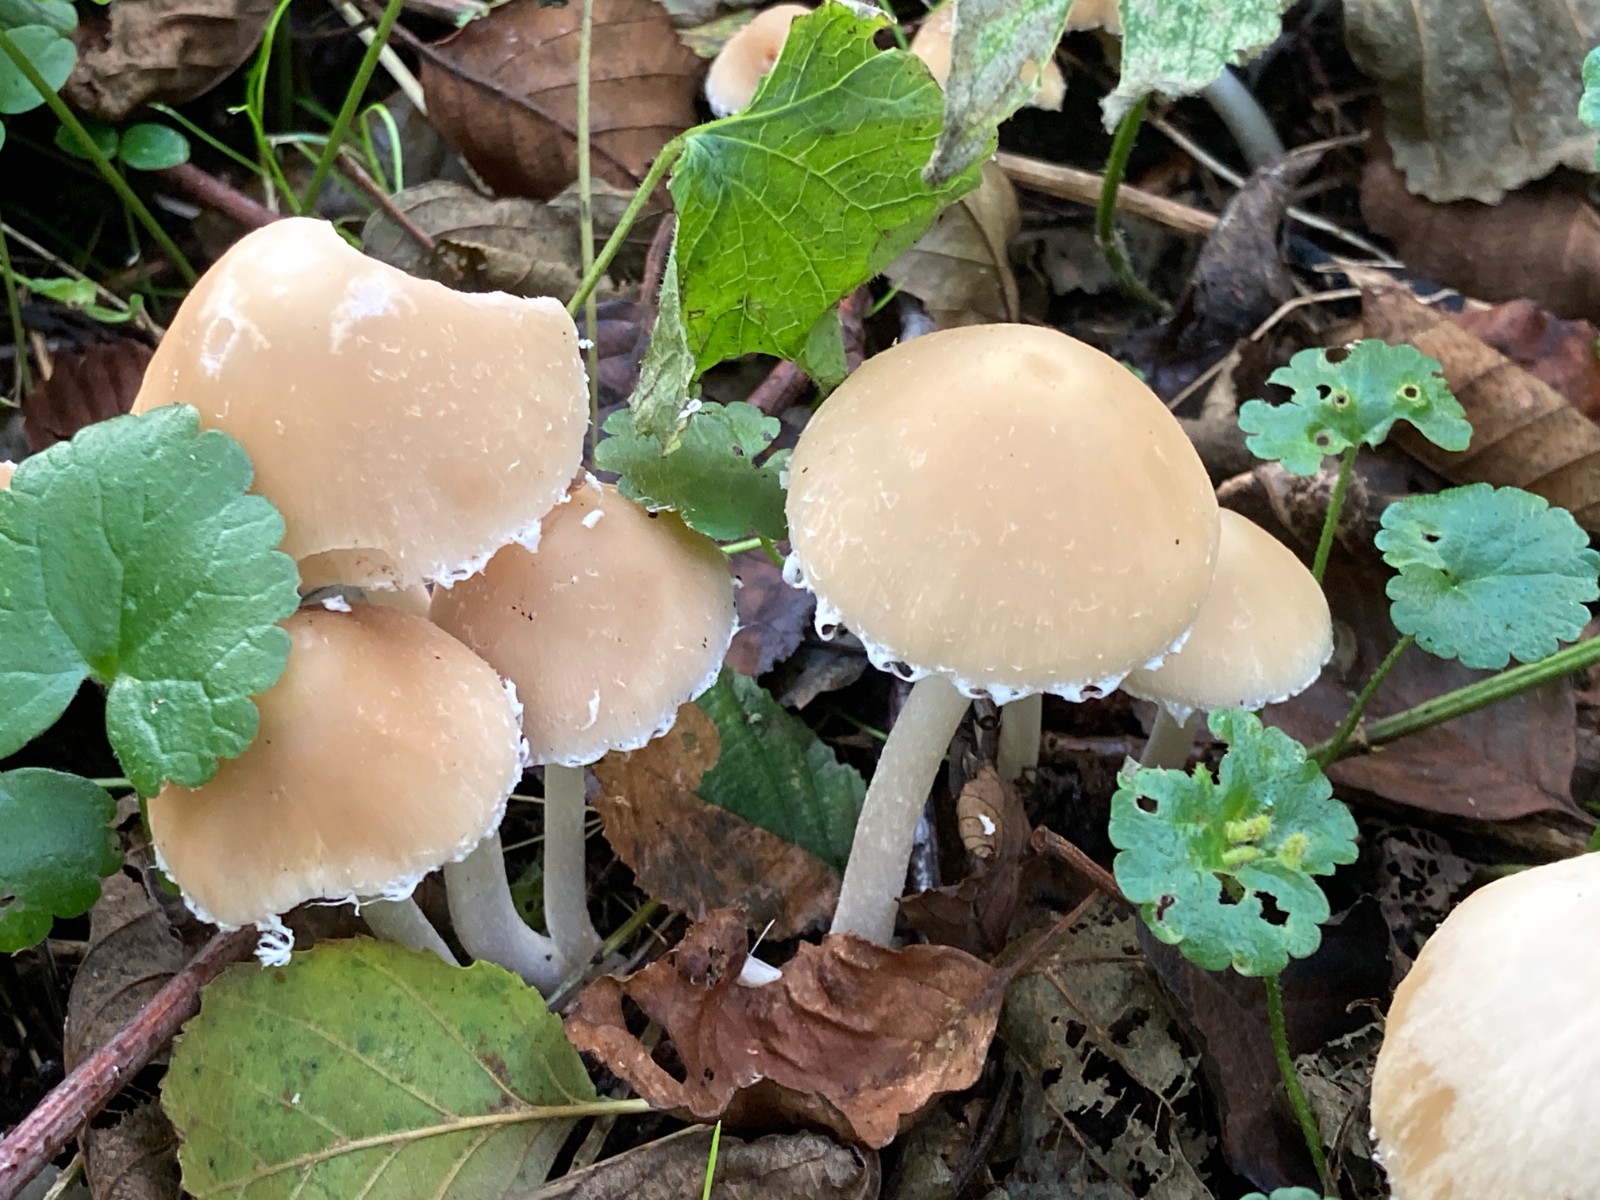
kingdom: Fungi
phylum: Basidiomycota
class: Agaricomycetes
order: Agaricales
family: Psathyrellaceae
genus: Candolleomyces
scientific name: Candolleomyces candolleanus
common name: Candolles mørkhat
